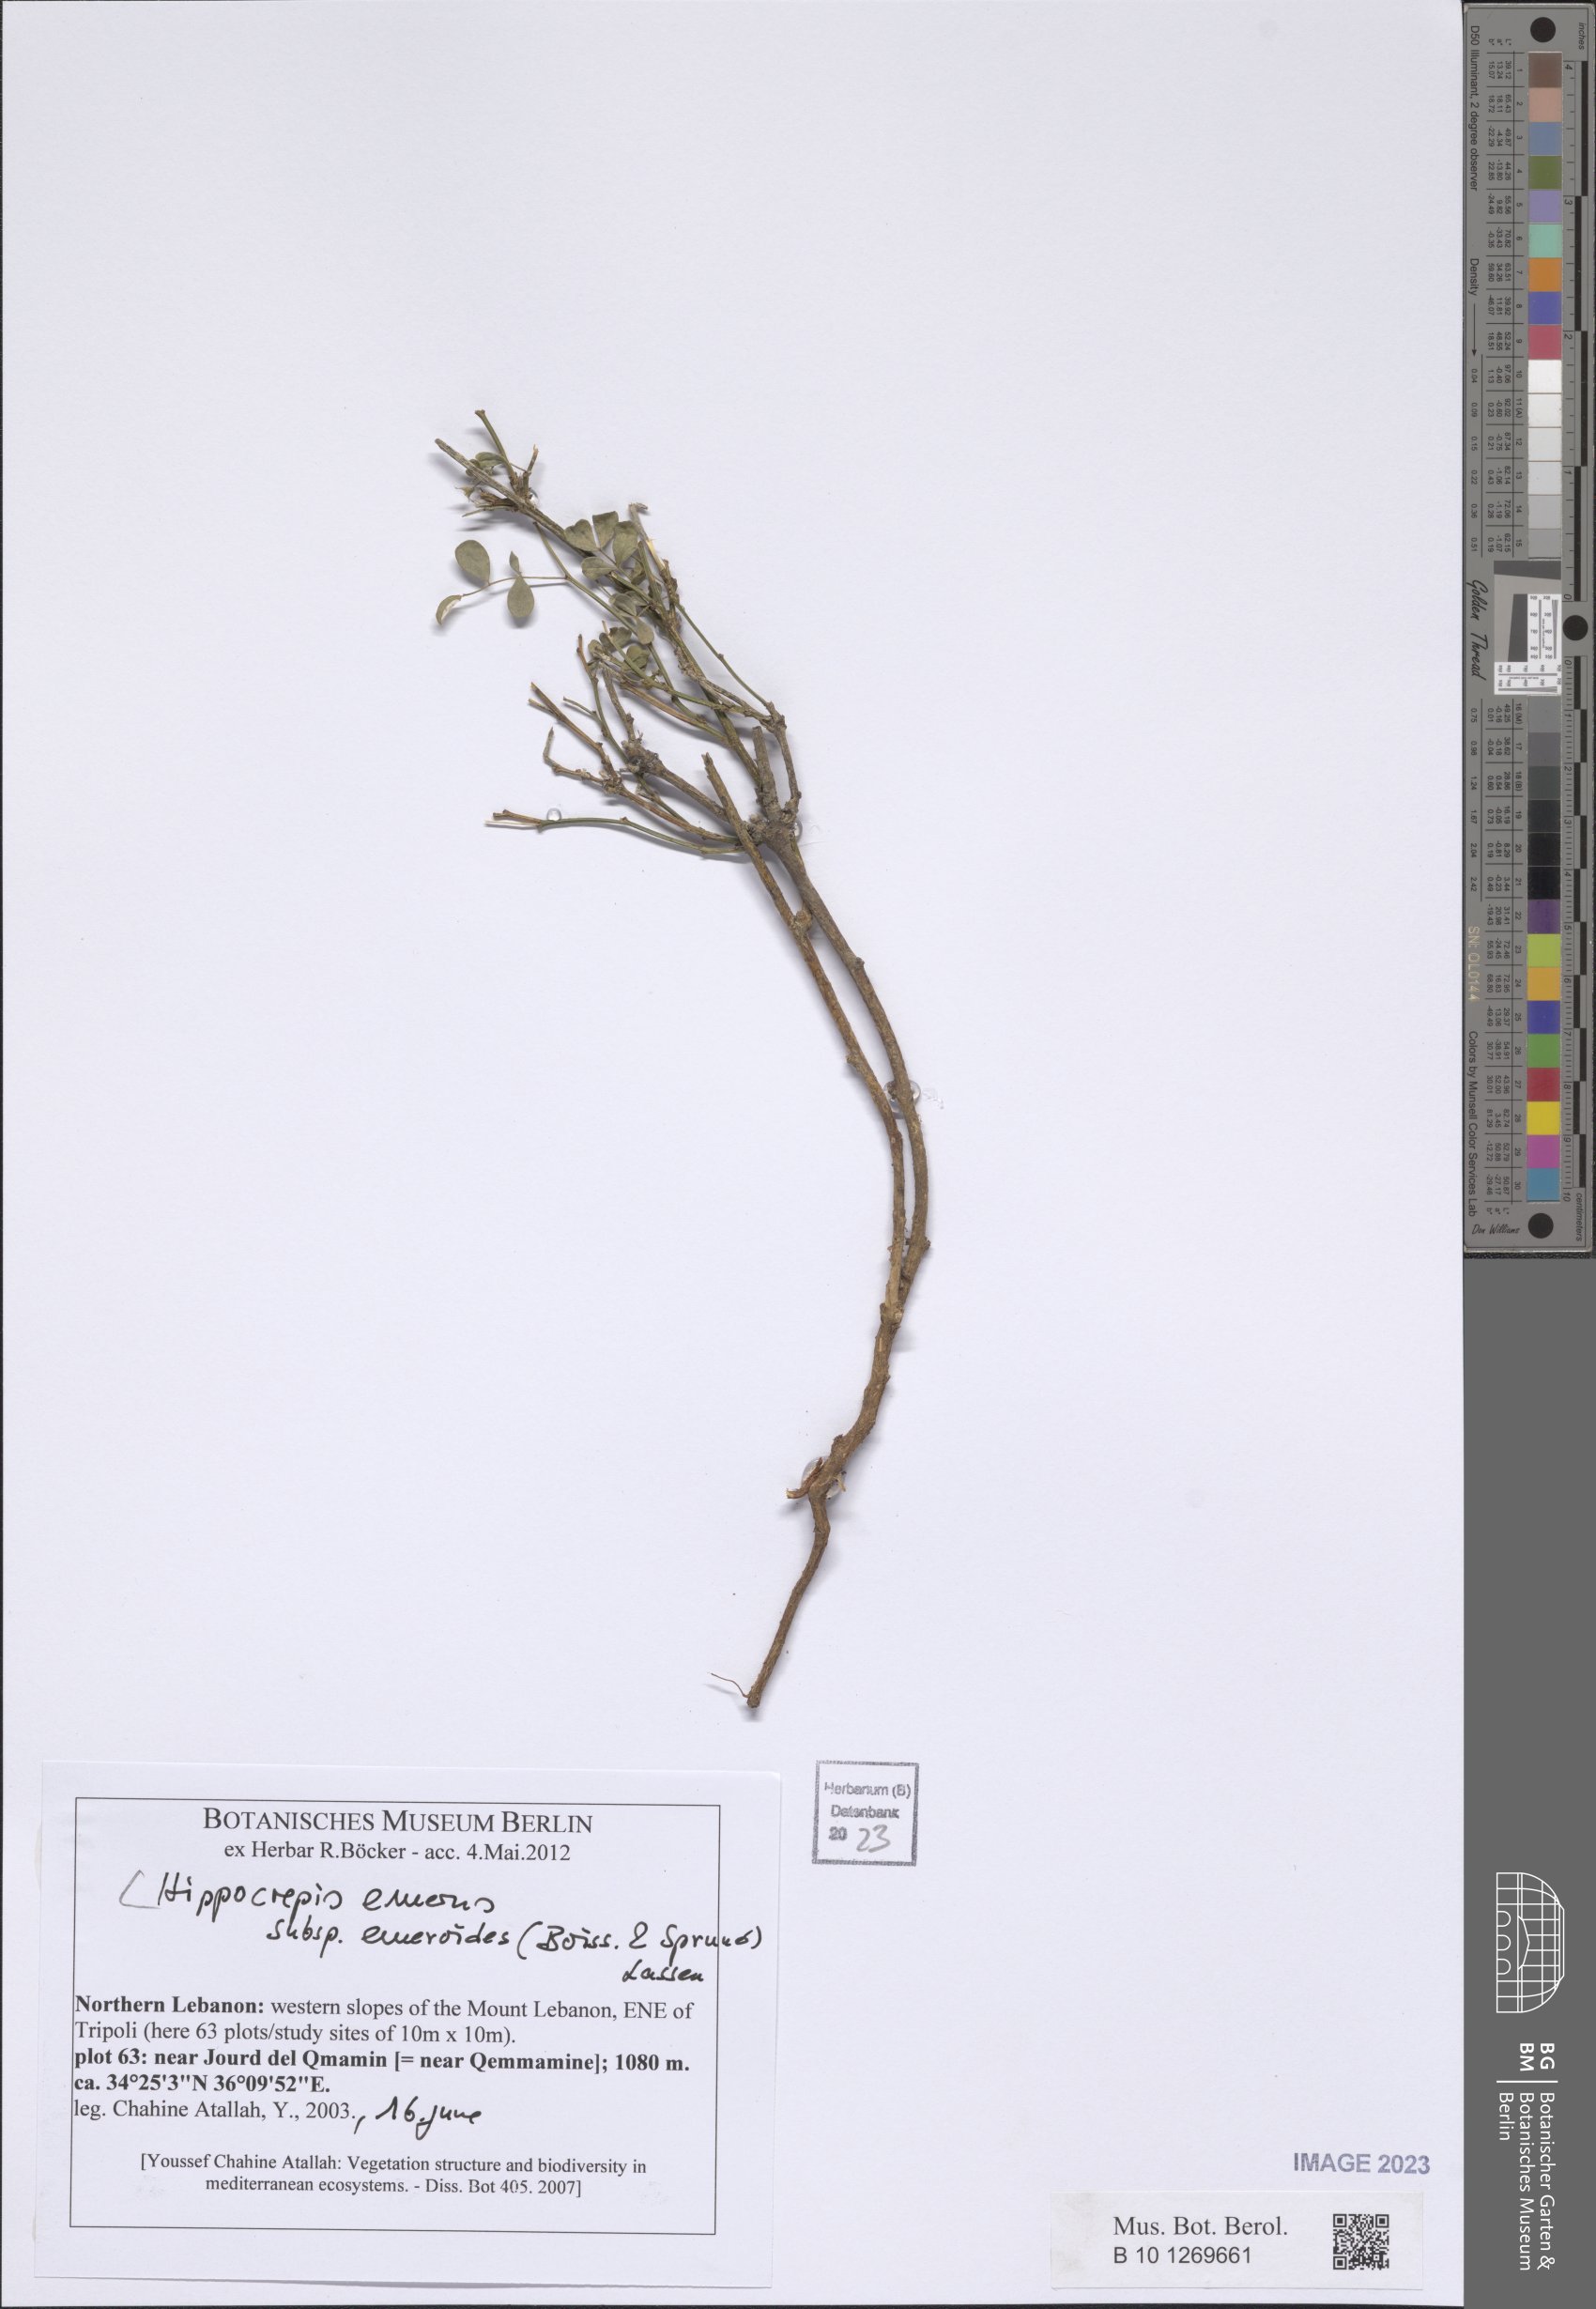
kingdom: Plantae
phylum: Tracheophyta
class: Magnoliopsida
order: Fabales
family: Fabaceae
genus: Hippocrepis
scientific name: Hippocrepis emerus
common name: Scorpion senna
